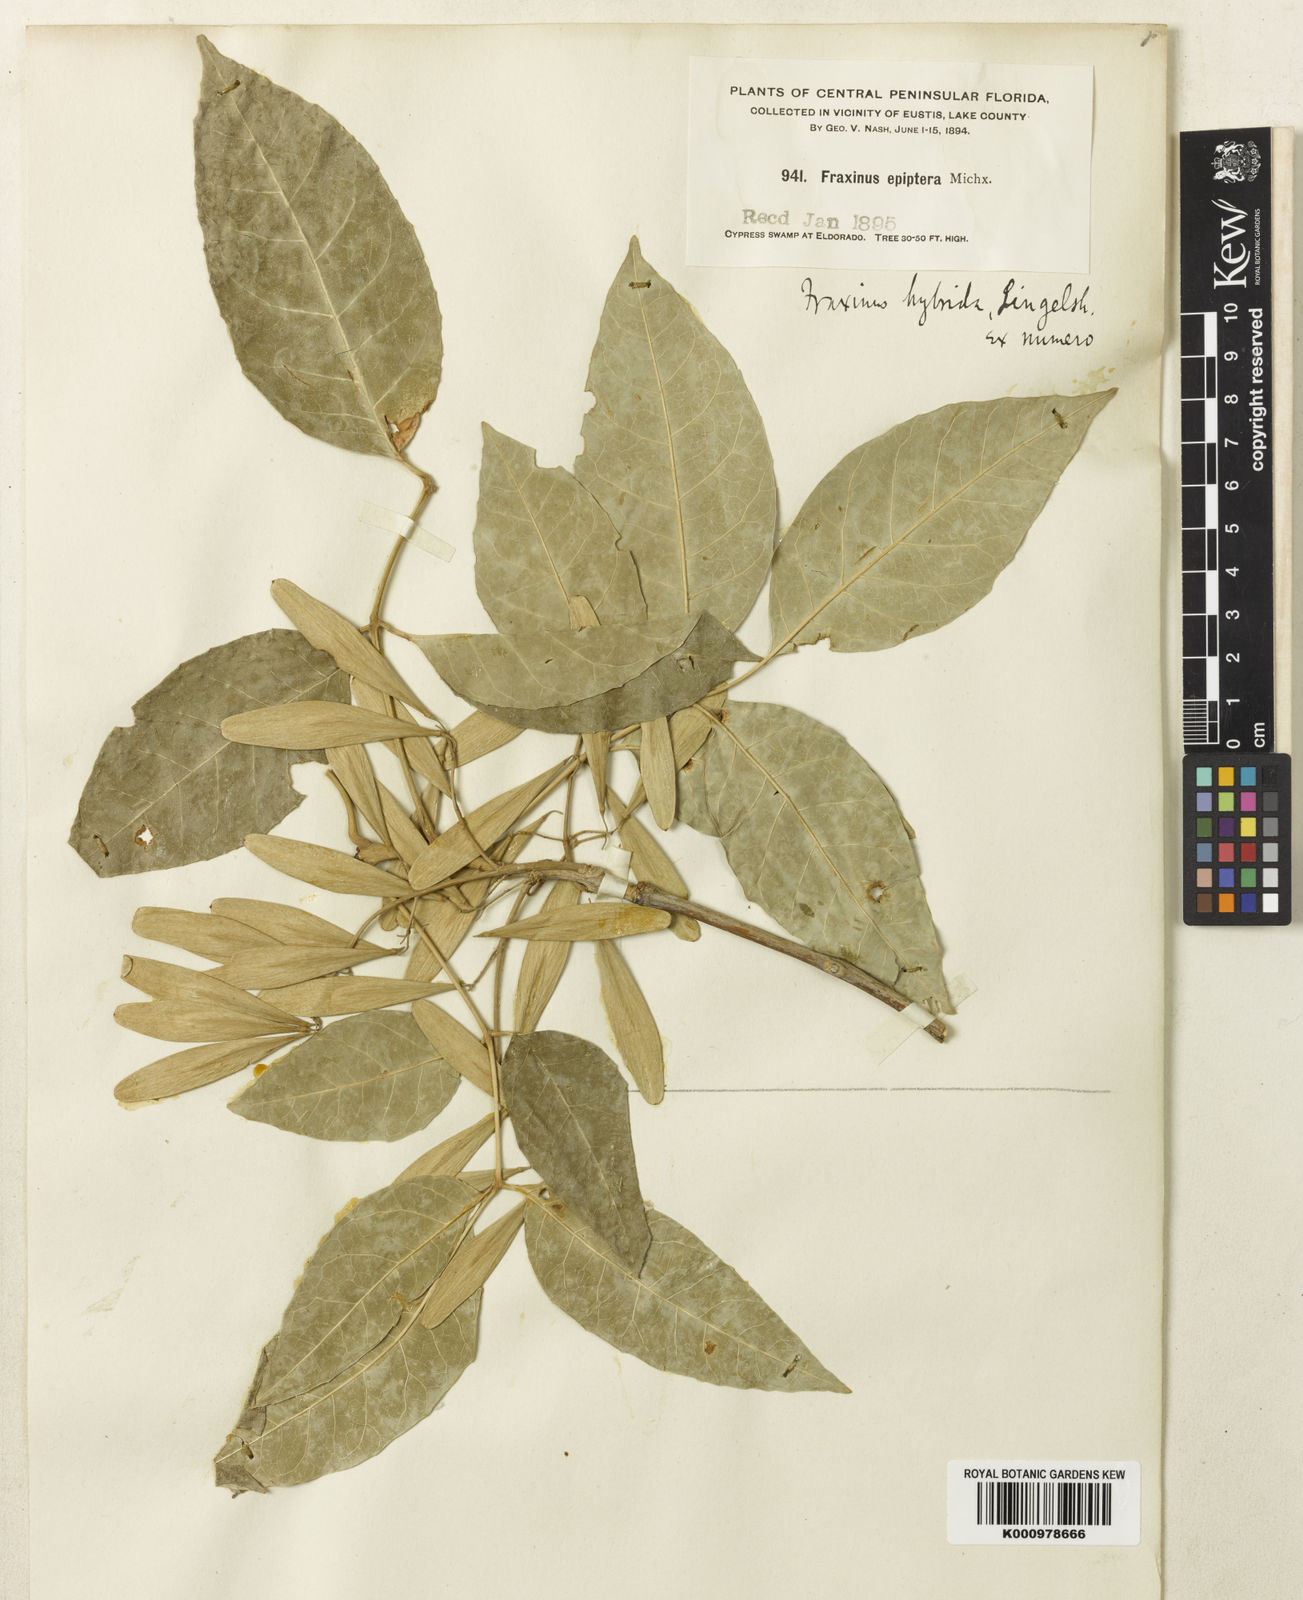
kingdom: Plantae
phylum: Tracheophyta
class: Magnoliopsida
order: Lamiales
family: Oleaceae
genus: Fraxinus
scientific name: Fraxinus caroliniana
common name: Carolina ash
